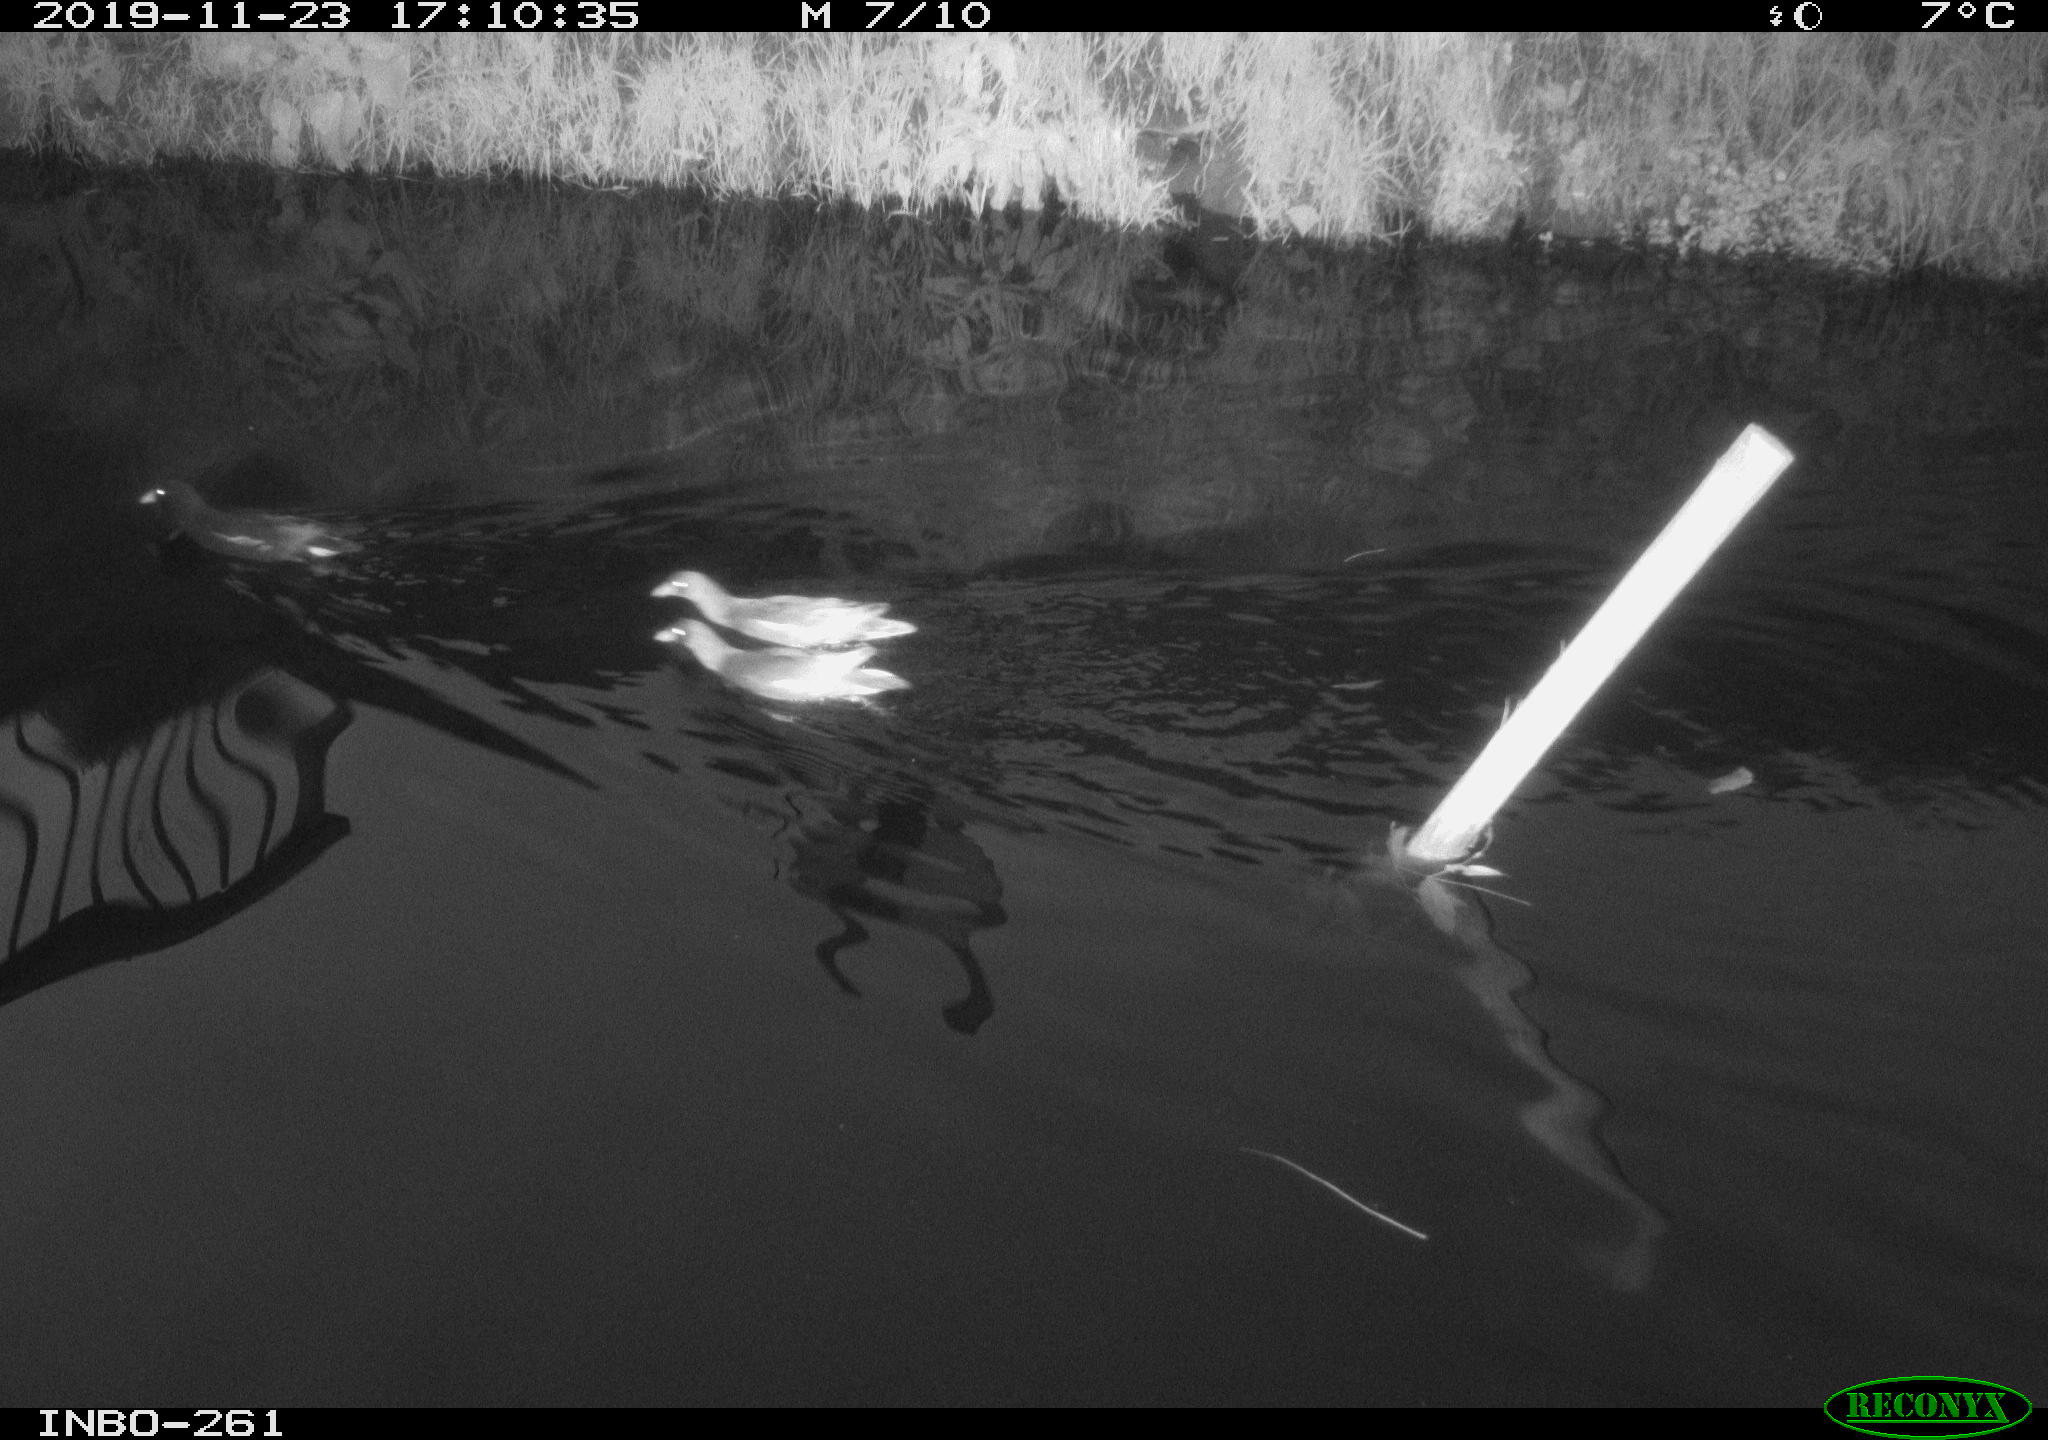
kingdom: Animalia
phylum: Chordata
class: Aves
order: Anseriformes
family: Anatidae
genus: Anas
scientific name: Anas platyrhynchos
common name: Mallard
